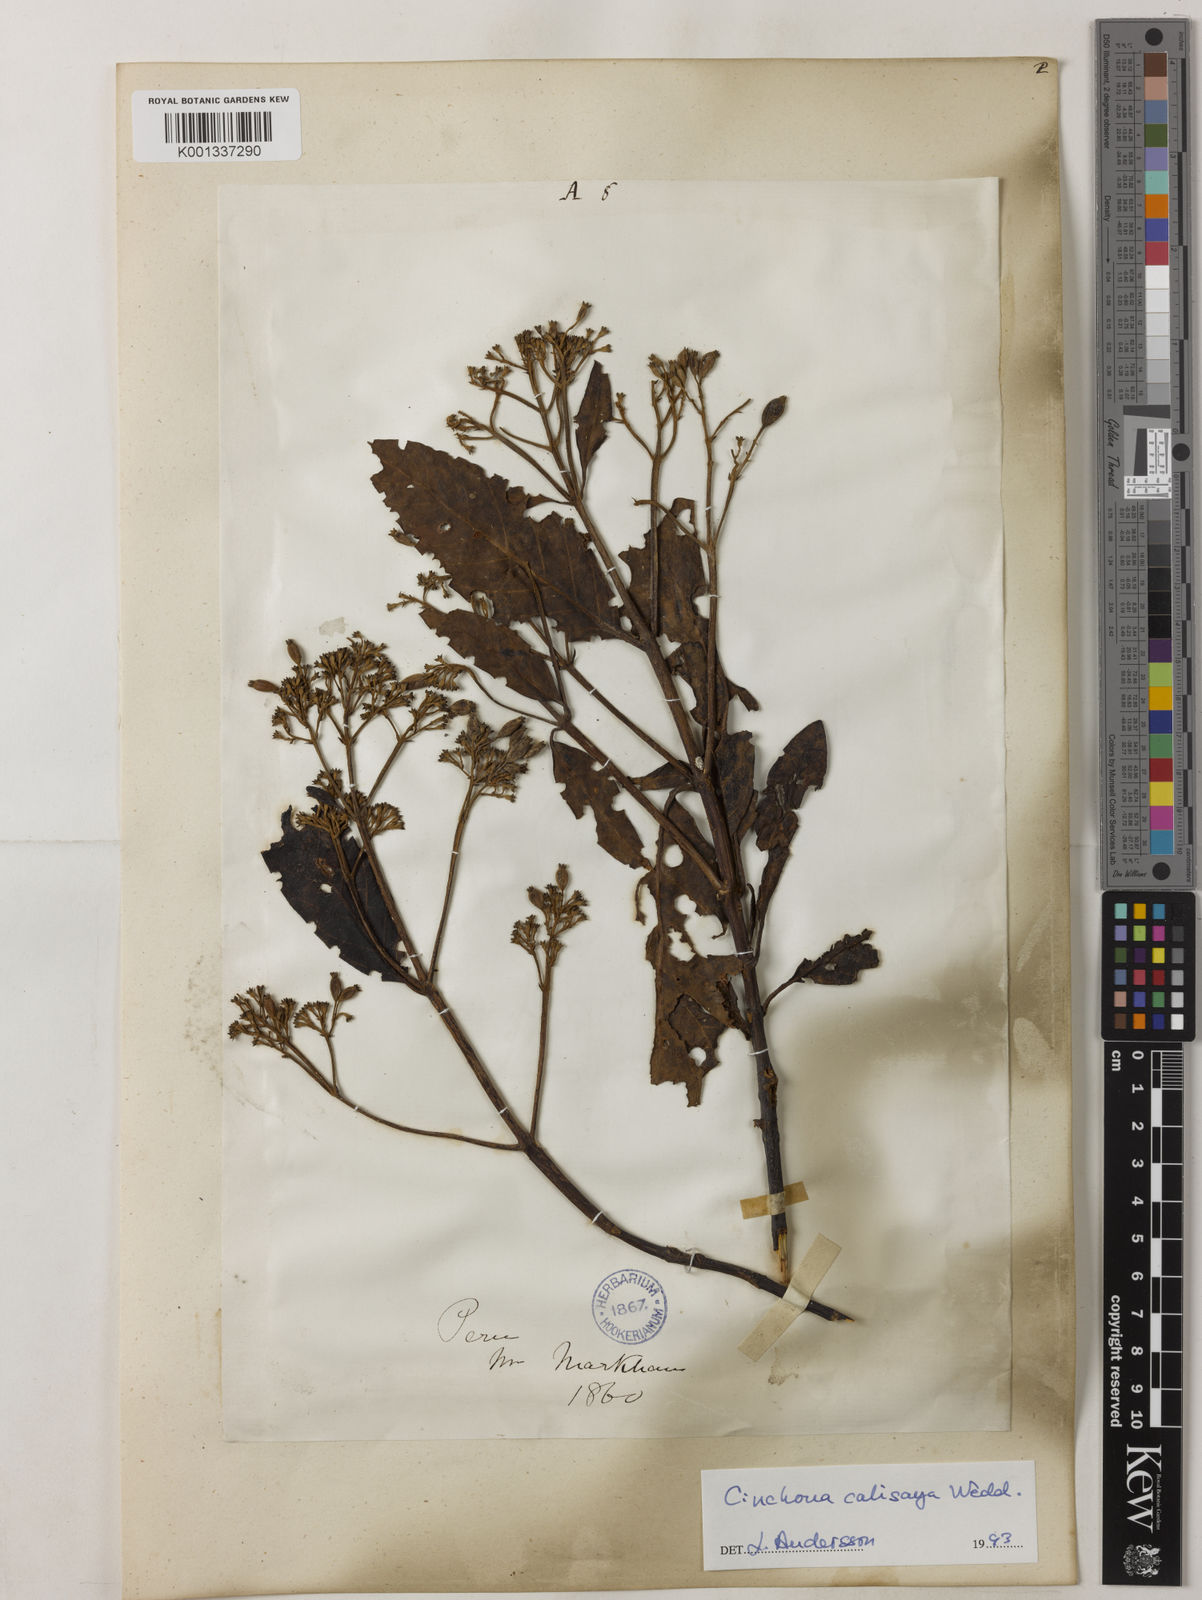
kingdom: Plantae
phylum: Tracheophyta
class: Magnoliopsida
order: Gentianales
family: Rubiaceae
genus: Cinchona
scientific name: Cinchona calisaya
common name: Ledgerbark
